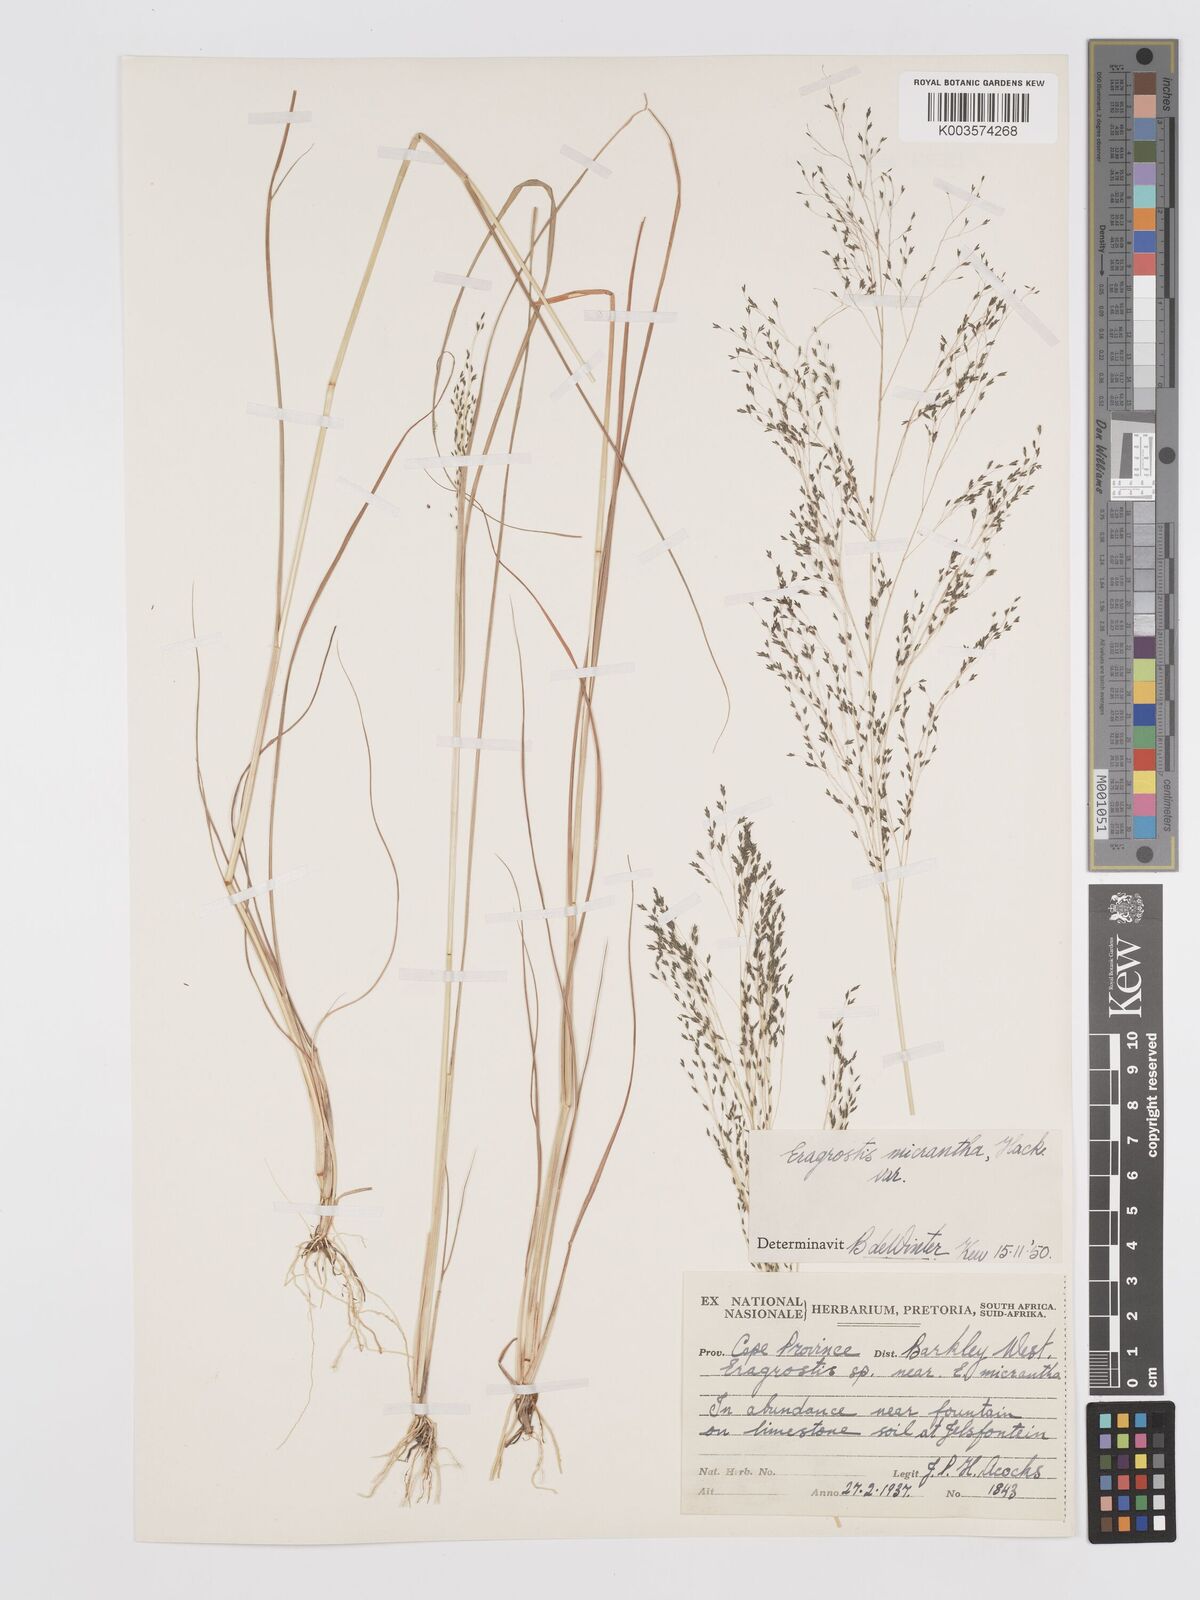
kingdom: Plantae
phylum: Tracheophyta
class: Liliopsida
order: Poales
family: Poaceae
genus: Eragrostis
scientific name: Eragrostis micrantha
